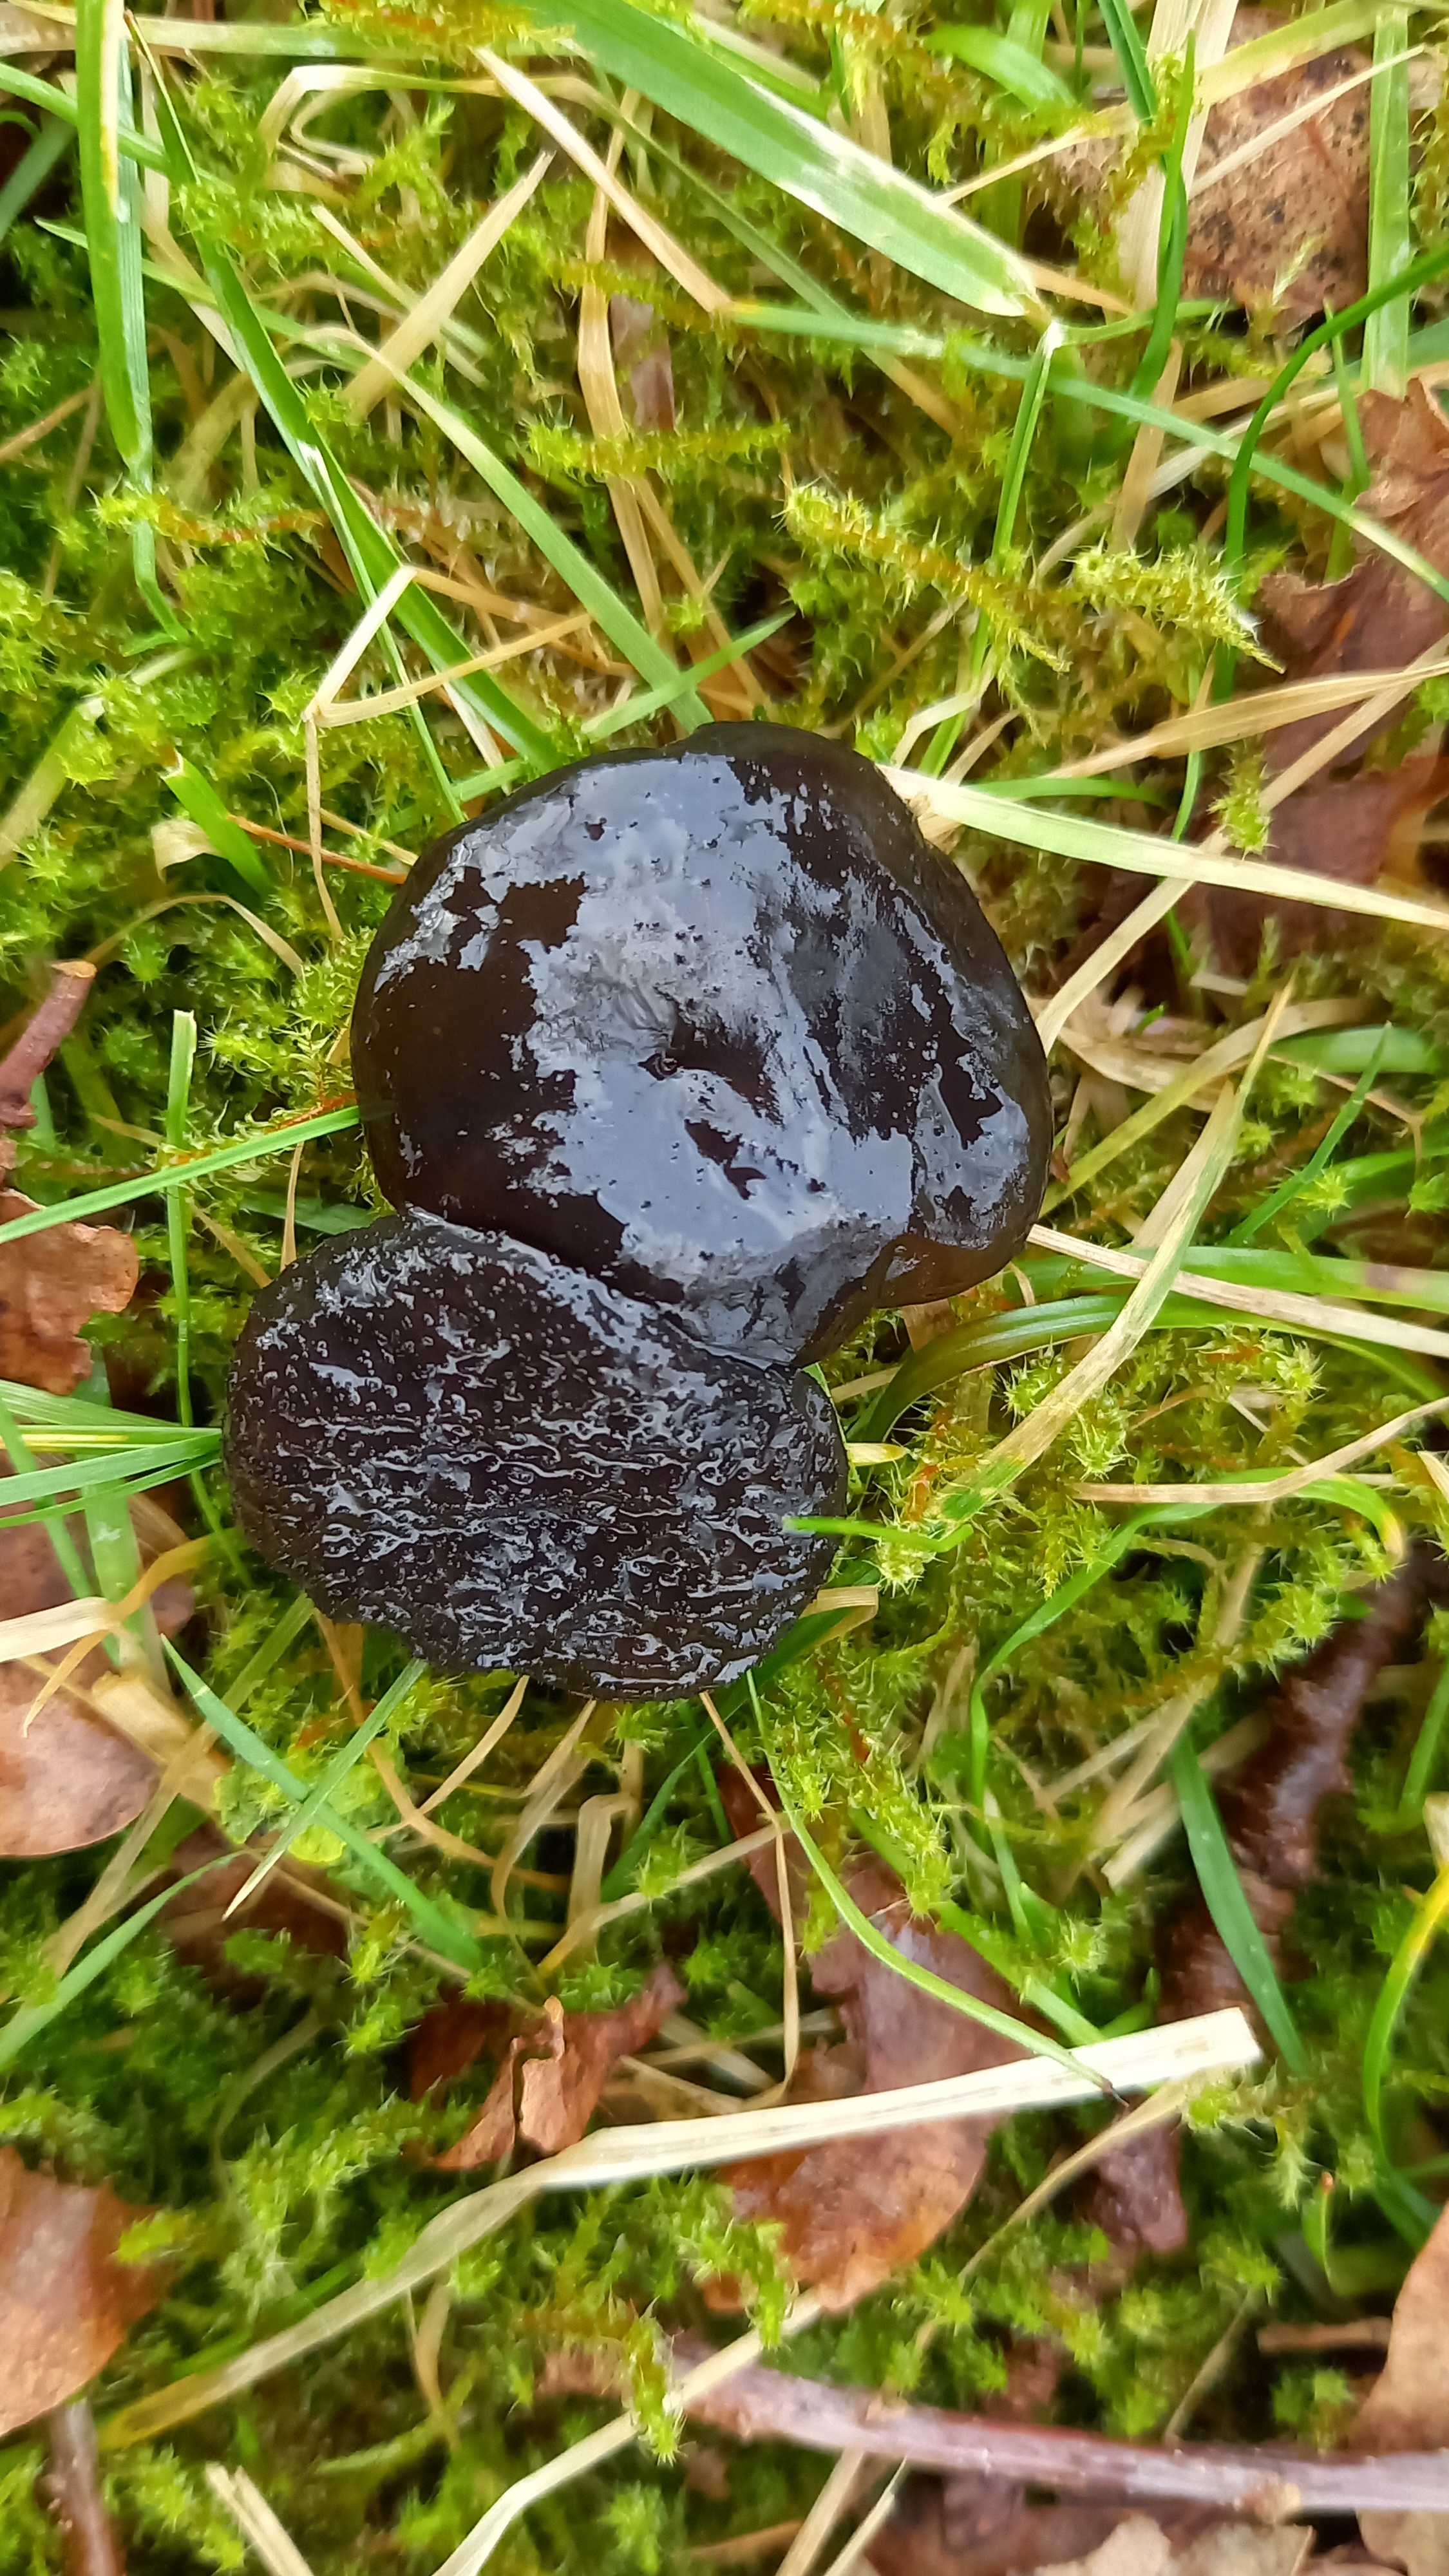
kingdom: Fungi
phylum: Basidiomycota
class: Agaricomycetes
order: Auriculariales
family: Auriculariaceae
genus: Exidia
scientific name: Exidia glandulosa
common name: ege-bævretop
